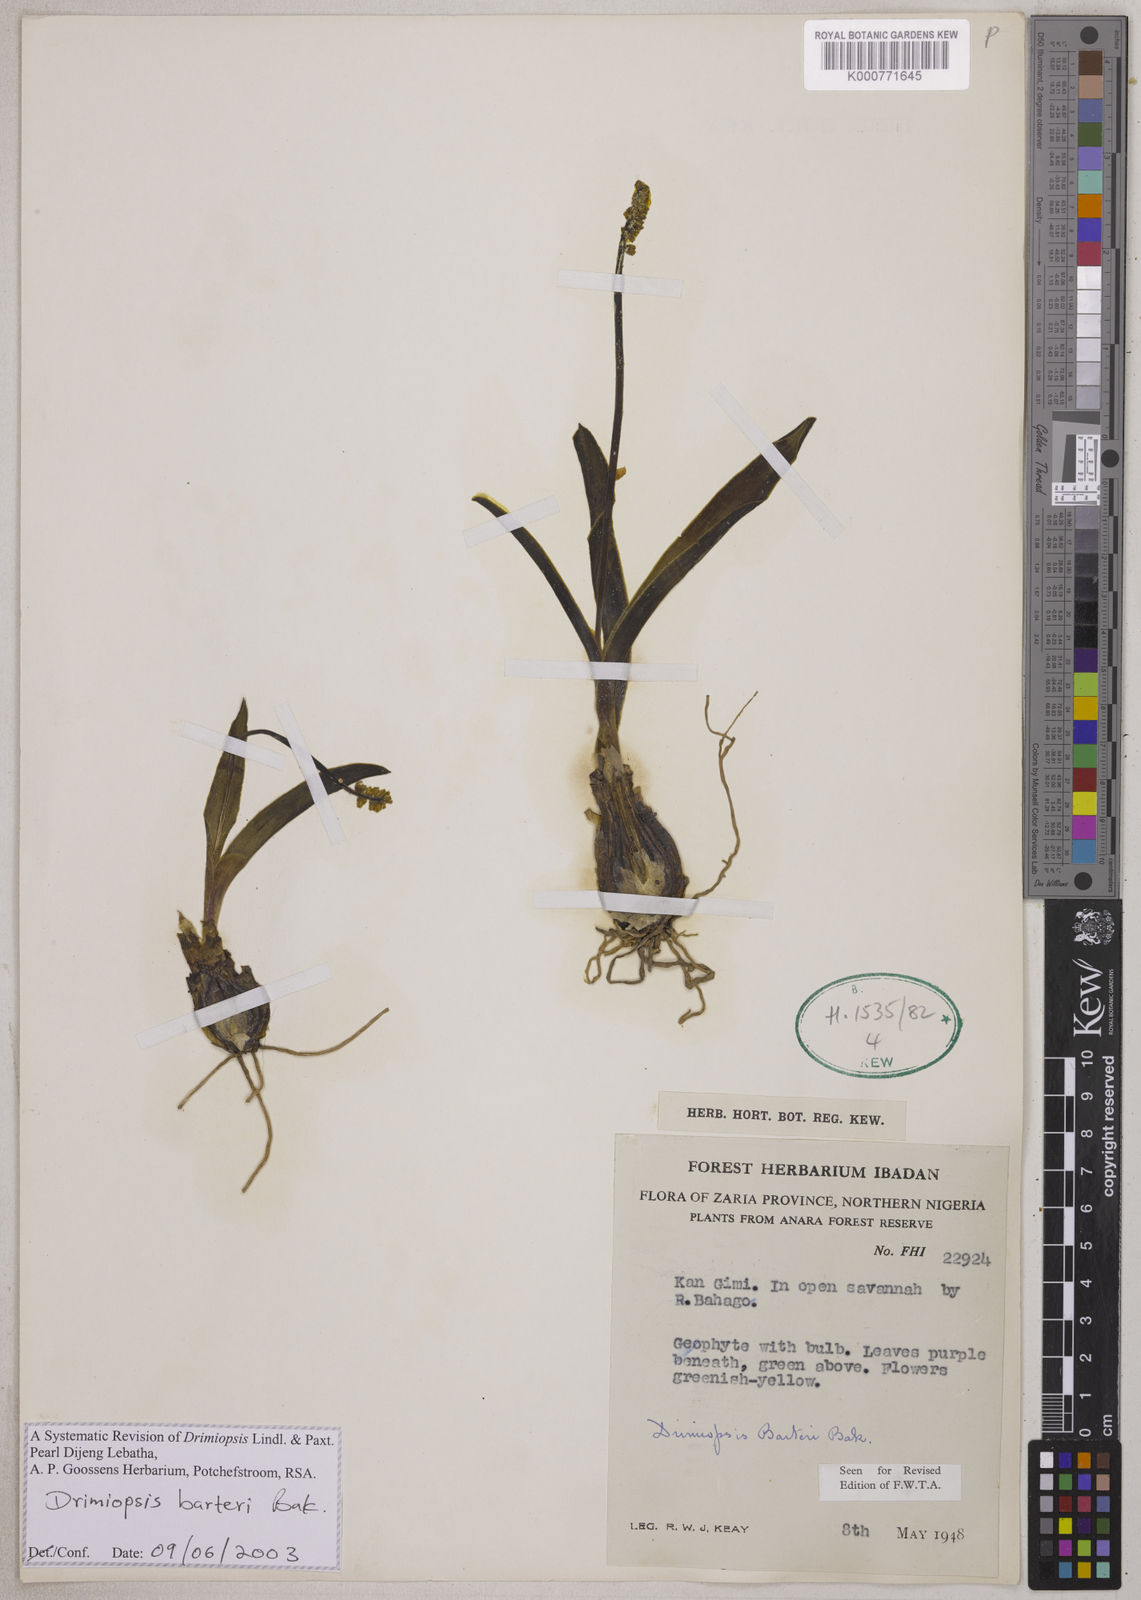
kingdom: Plantae
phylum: Tracheophyta
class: Liliopsida
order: Asparagales
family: Asparagaceae
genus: Drimiopsis
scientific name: Drimiopsis barteri
